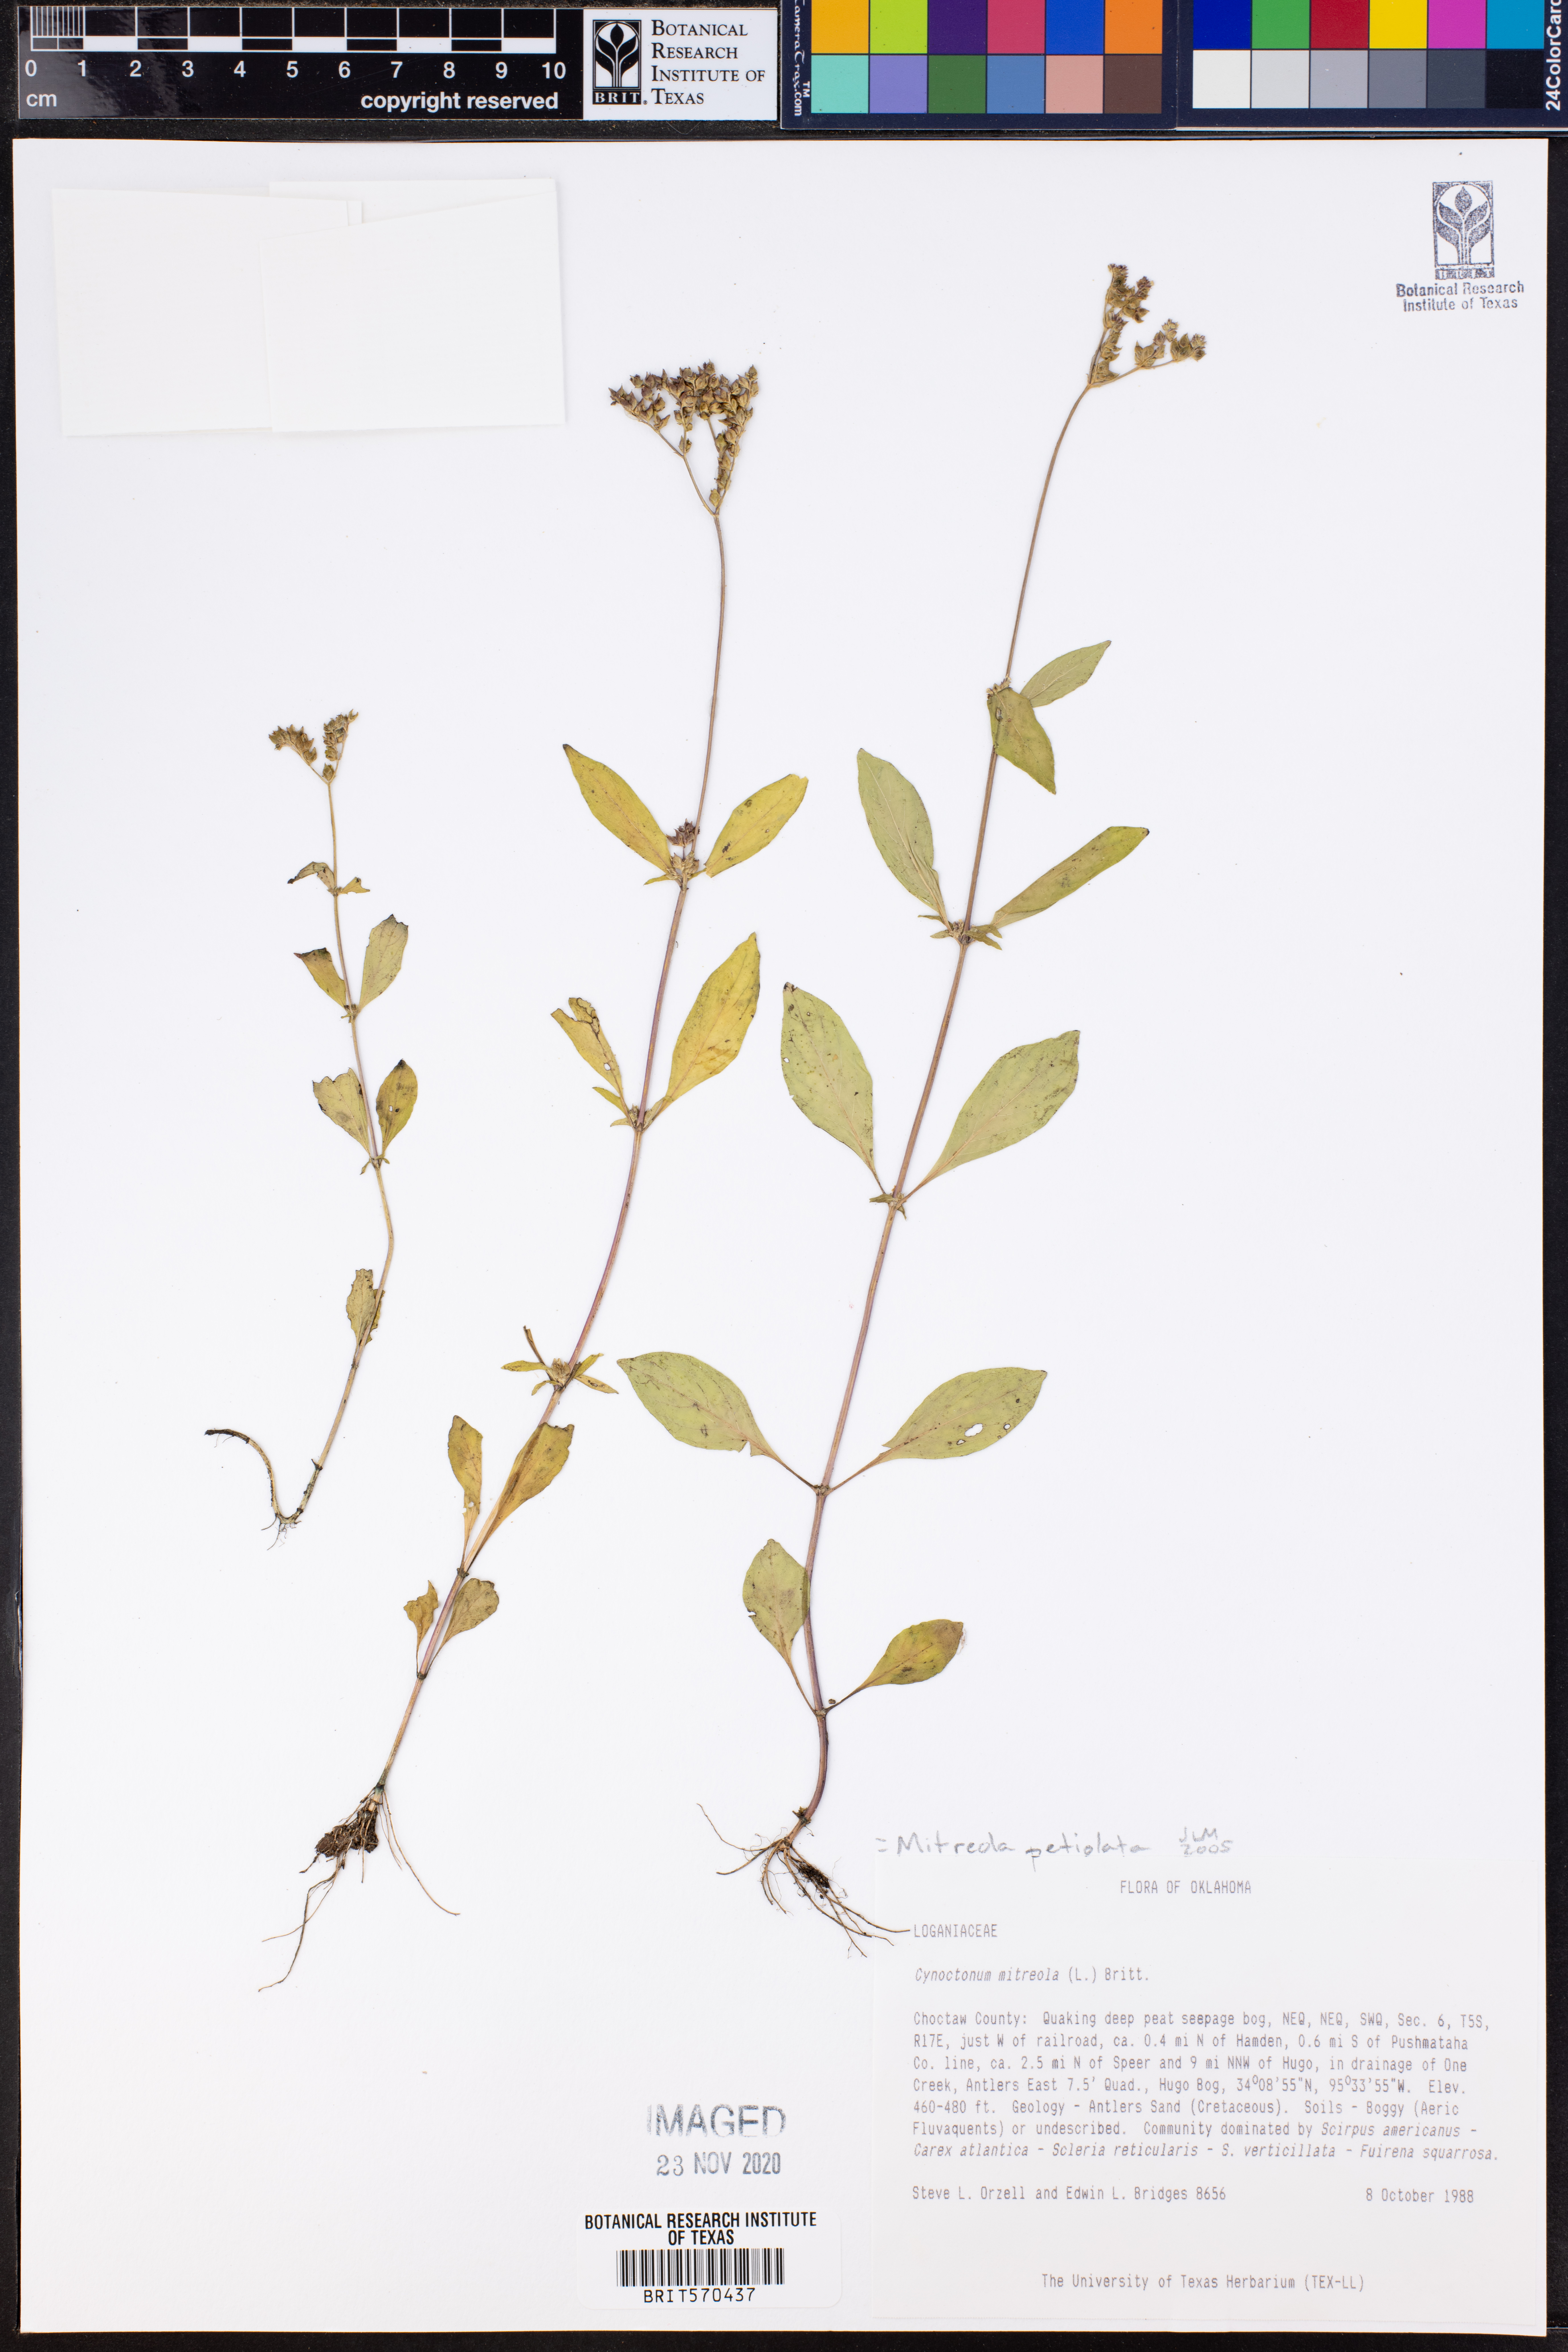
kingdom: Plantae
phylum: Tracheophyta
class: Magnoliopsida
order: Gentianales
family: Loganiaceae
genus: Mitreola
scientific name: Mitreola petiolata
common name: Lax hornpod
